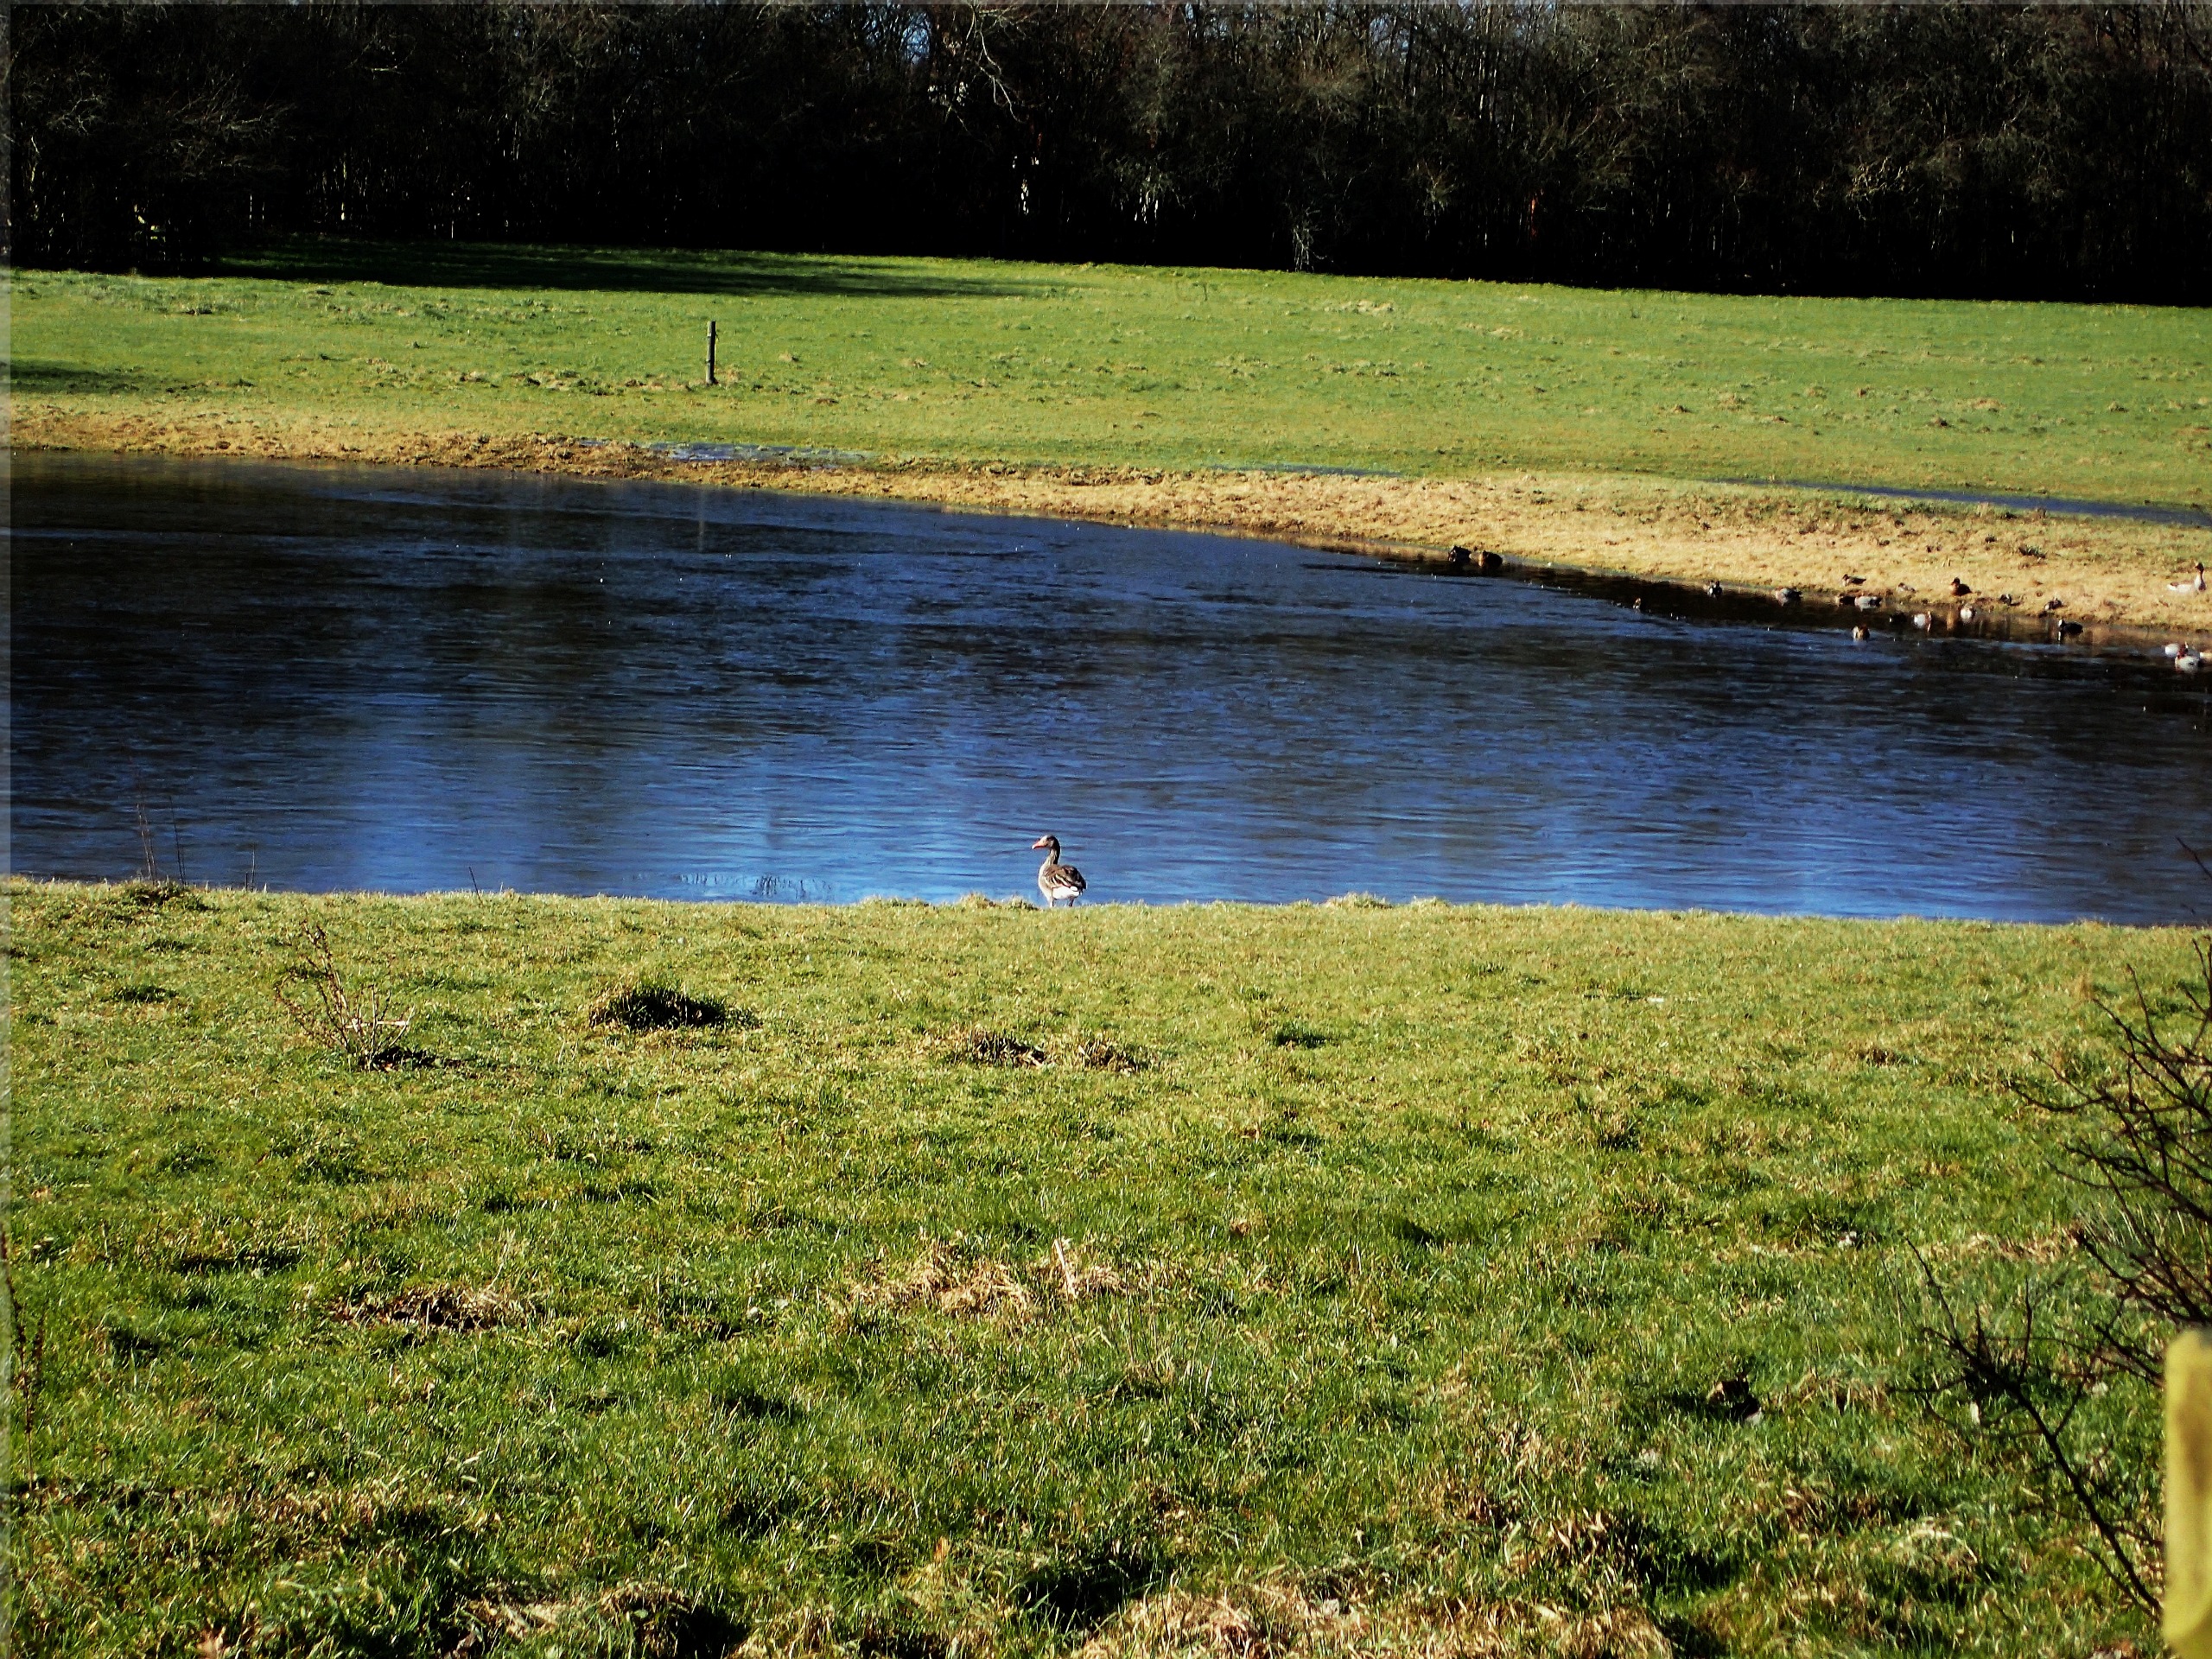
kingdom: Animalia
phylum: Chordata
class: Aves
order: Anseriformes
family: Anatidae
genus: Anser
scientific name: Anser anser
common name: Grågås
